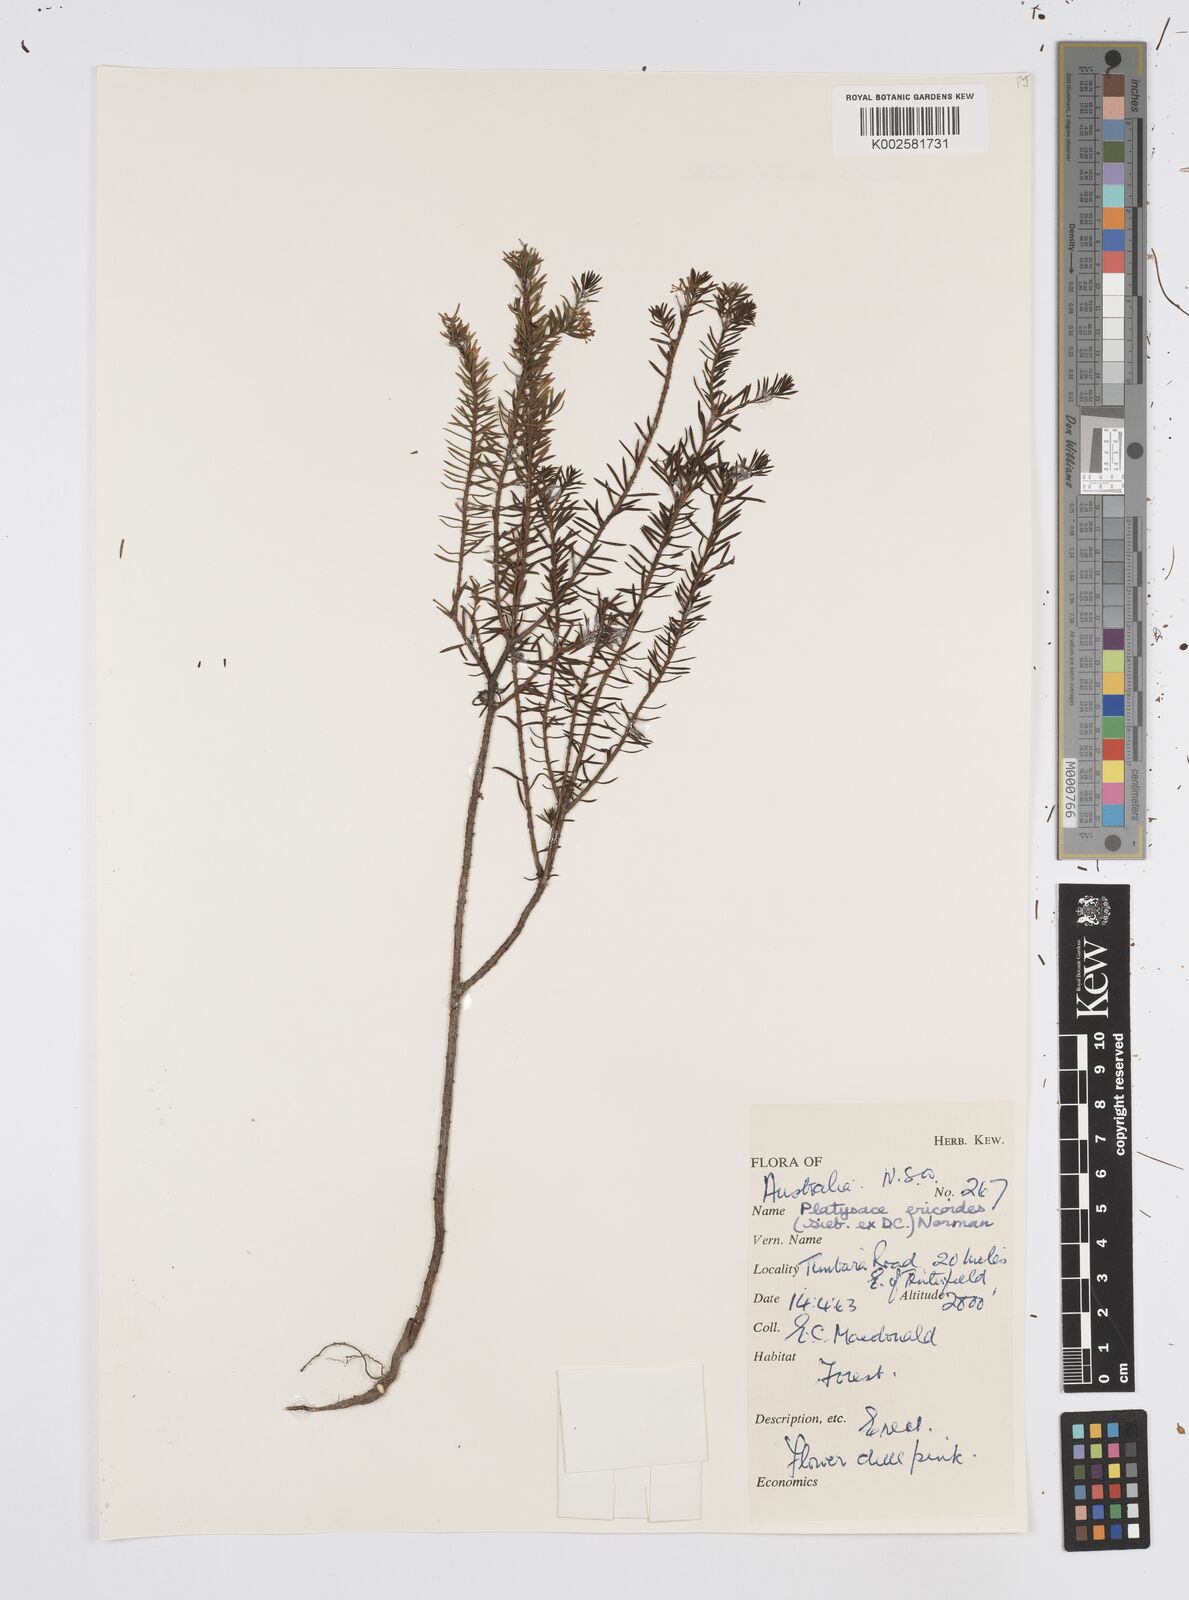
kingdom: Plantae
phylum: Tracheophyta
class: Magnoliopsida
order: Apiales
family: Apiaceae
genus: Platysace
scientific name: Platysace ericoides
